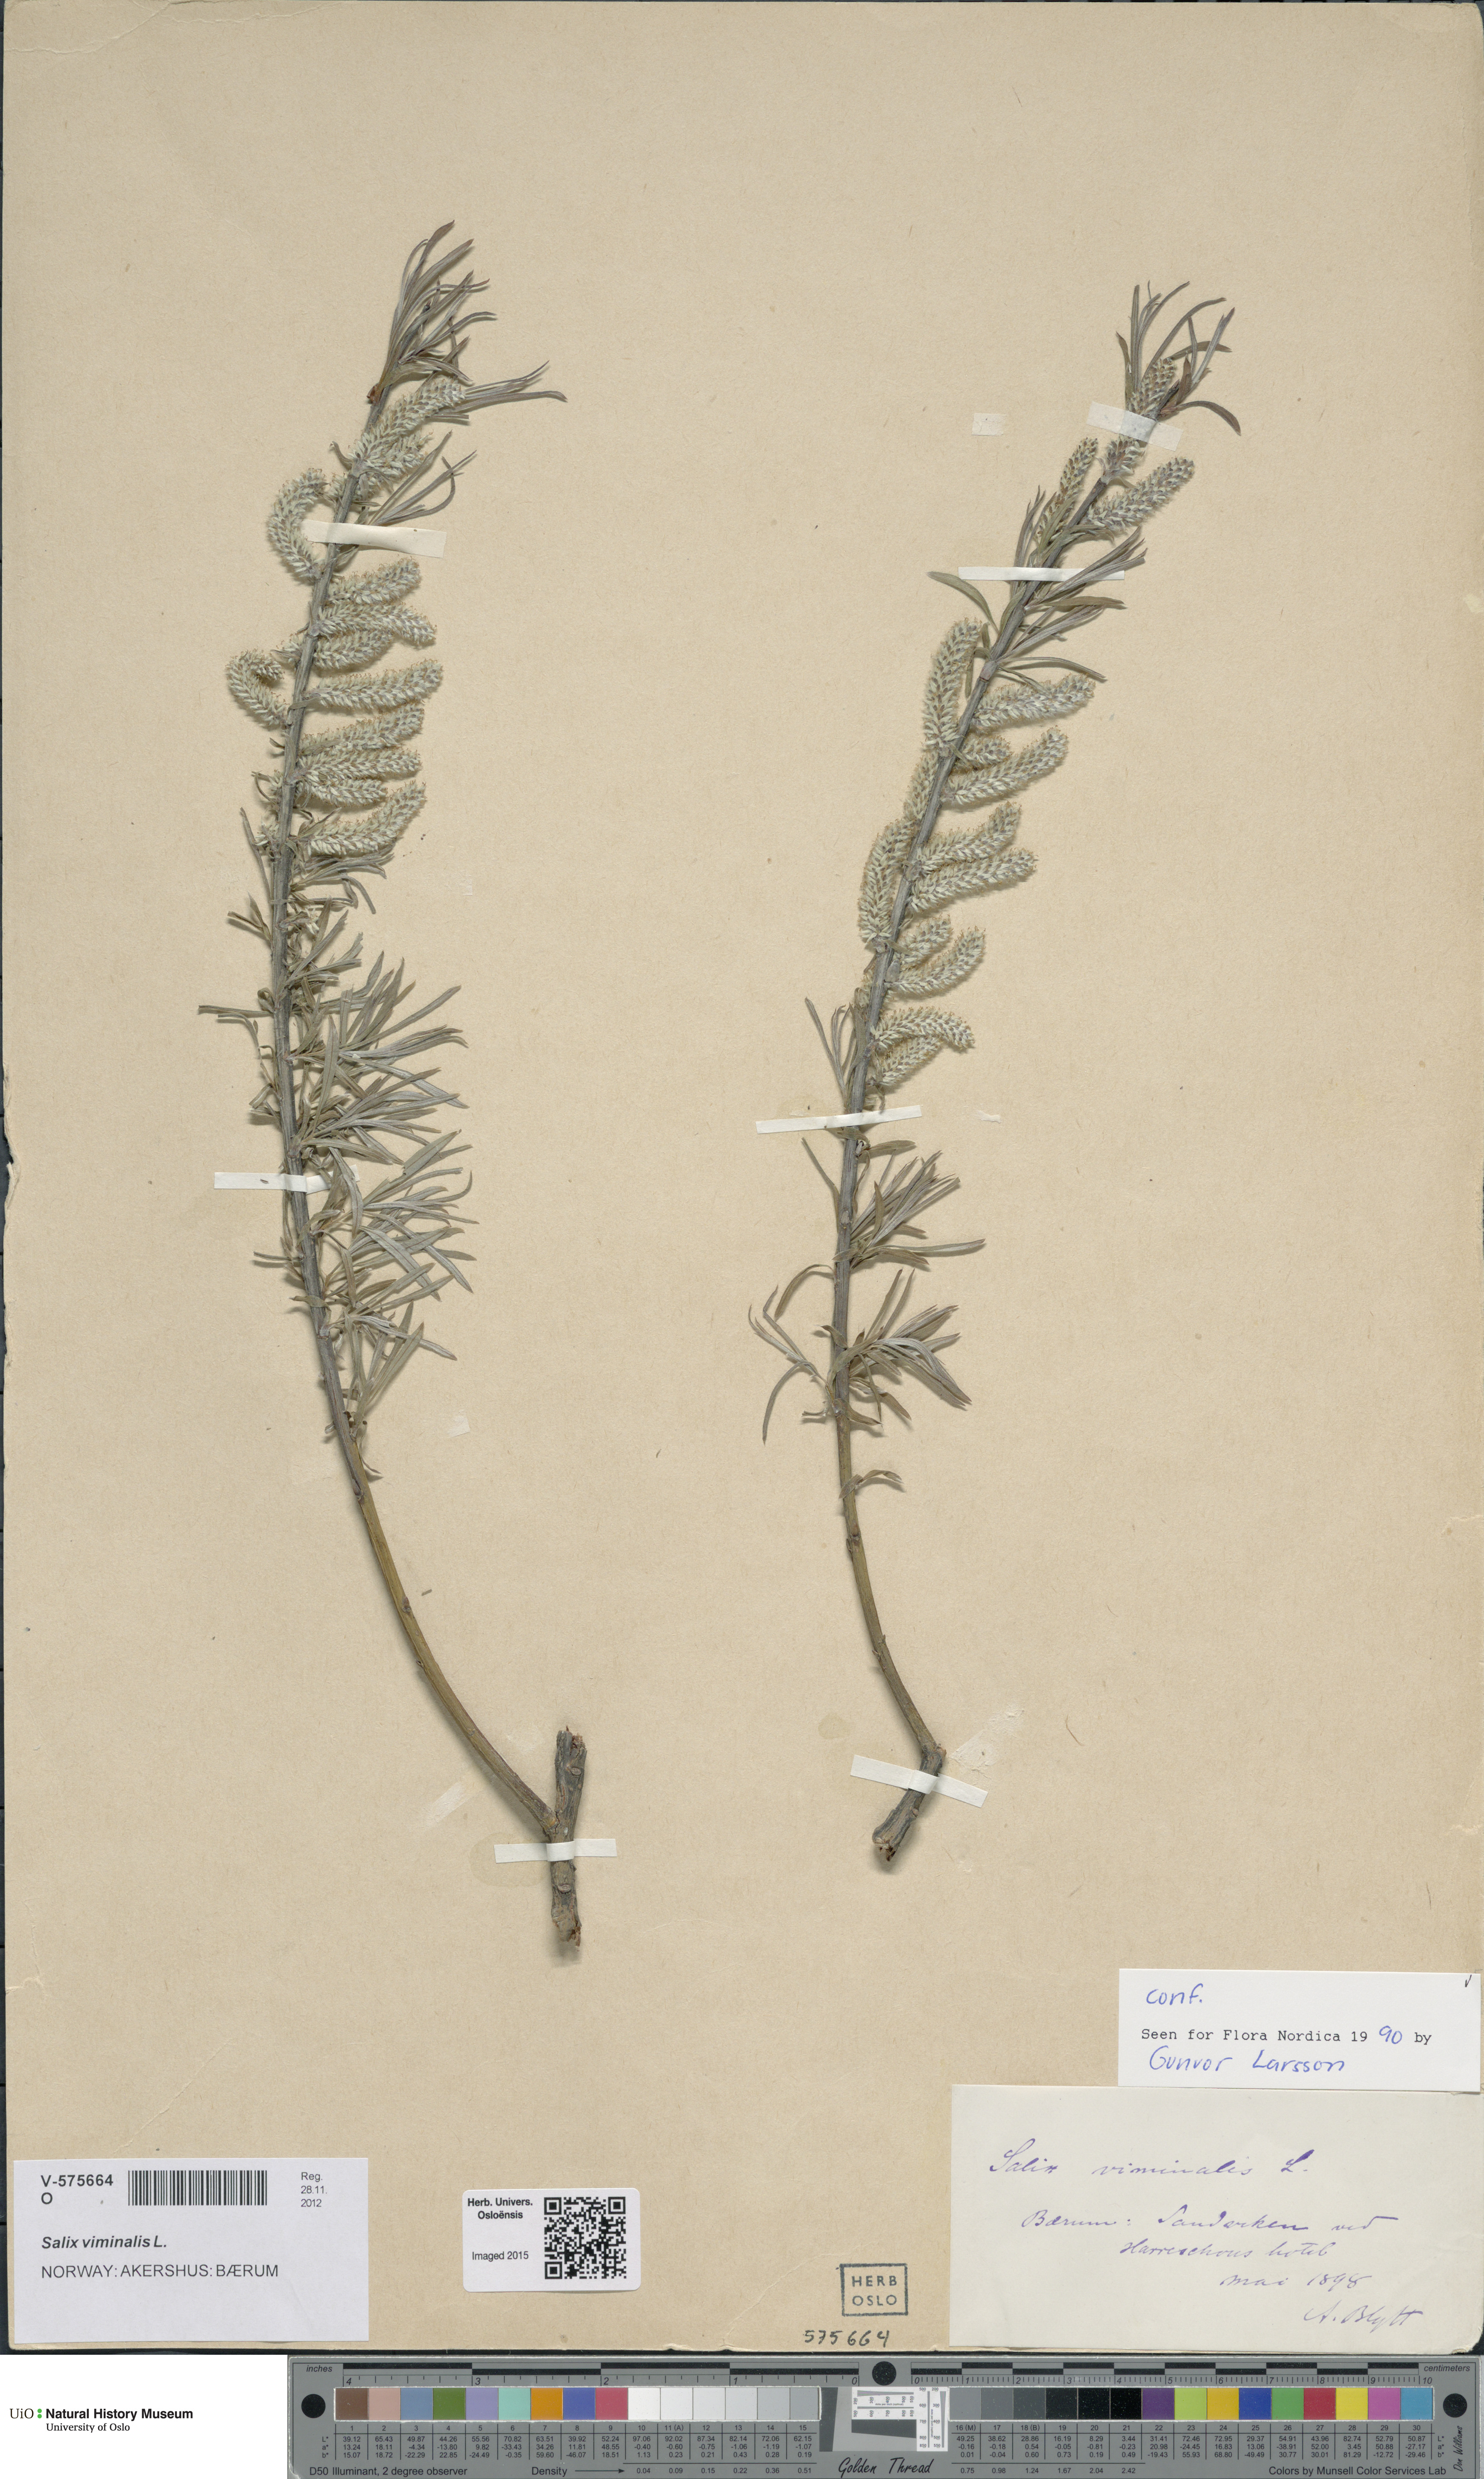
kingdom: Plantae
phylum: Tracheophyta
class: Magnoliopsida
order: Malpighiales
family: Salicaceae
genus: Salix
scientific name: Salix viminalis
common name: Osier
